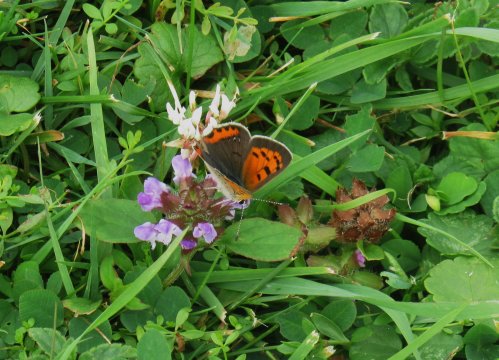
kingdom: Animalia
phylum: Arthropoda
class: Insecta
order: Lepidoptera
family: Lycaenidae
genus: Lycaena
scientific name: Lycaena phlaeas
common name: American Copper
